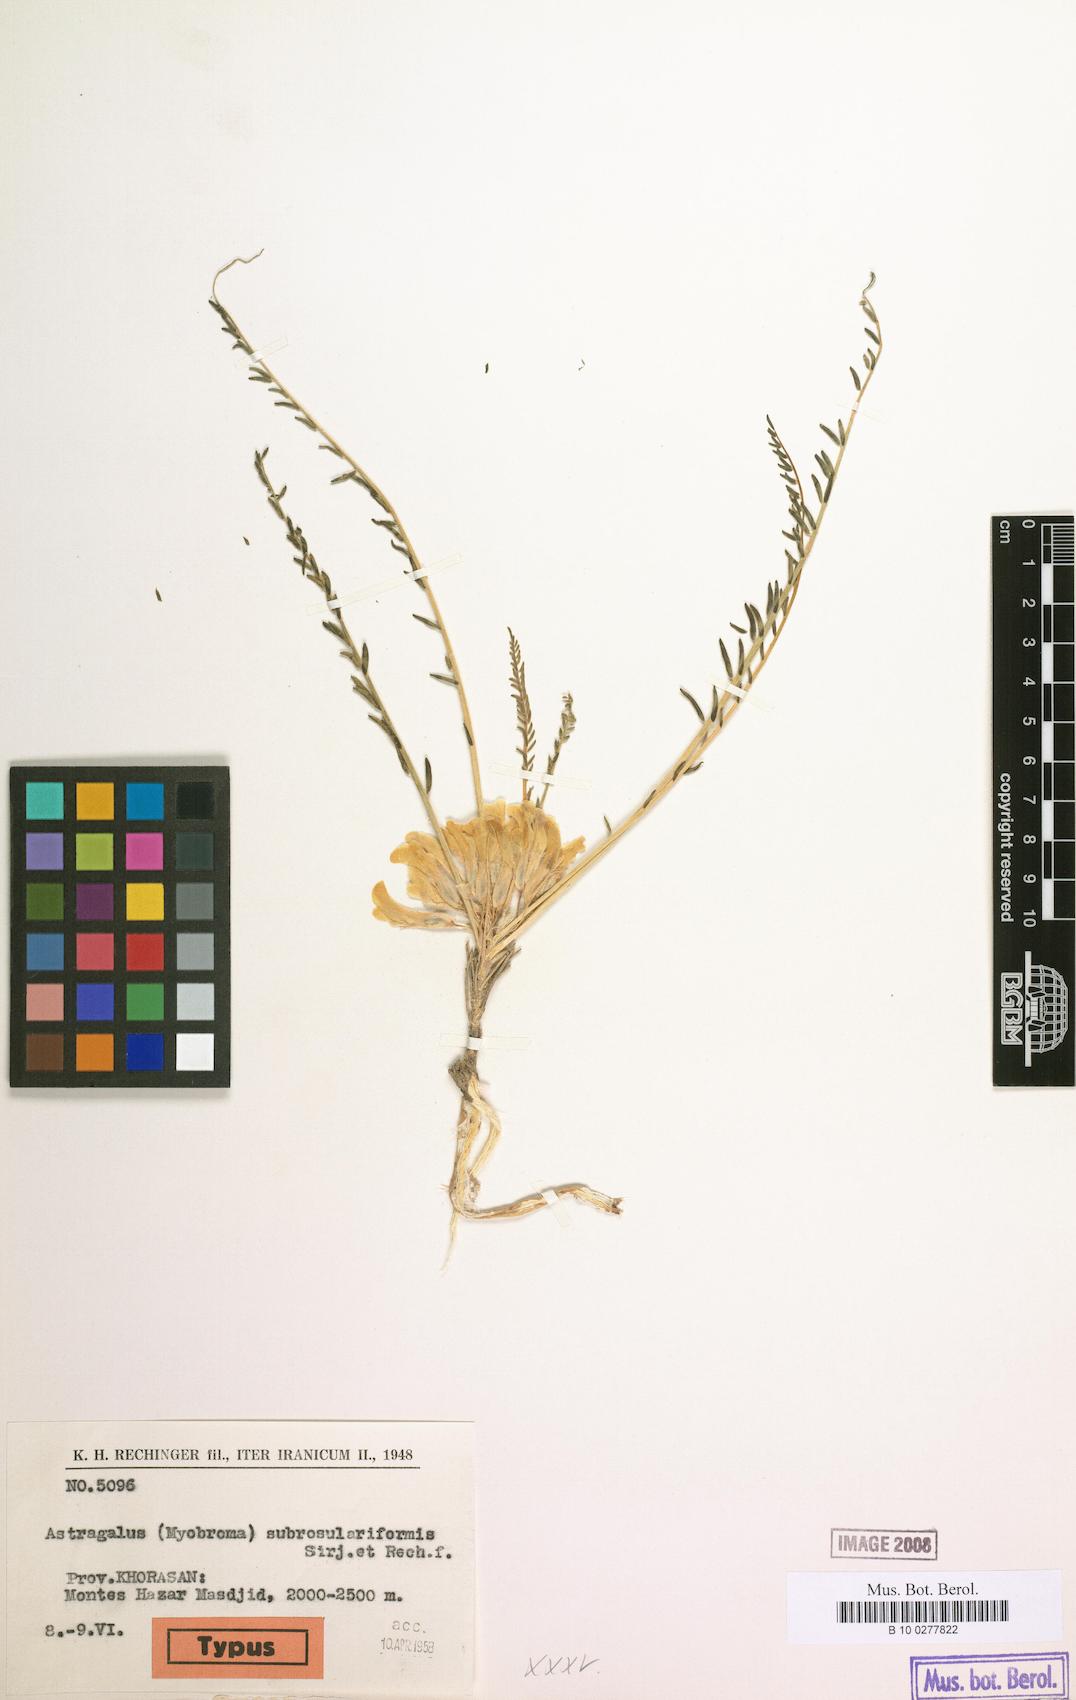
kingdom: Plantae
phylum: Tracheophyta
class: Magnoliopsida
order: Fabales
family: Fabaceae
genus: Astragalus
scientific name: Astragalus subrosulariformis
